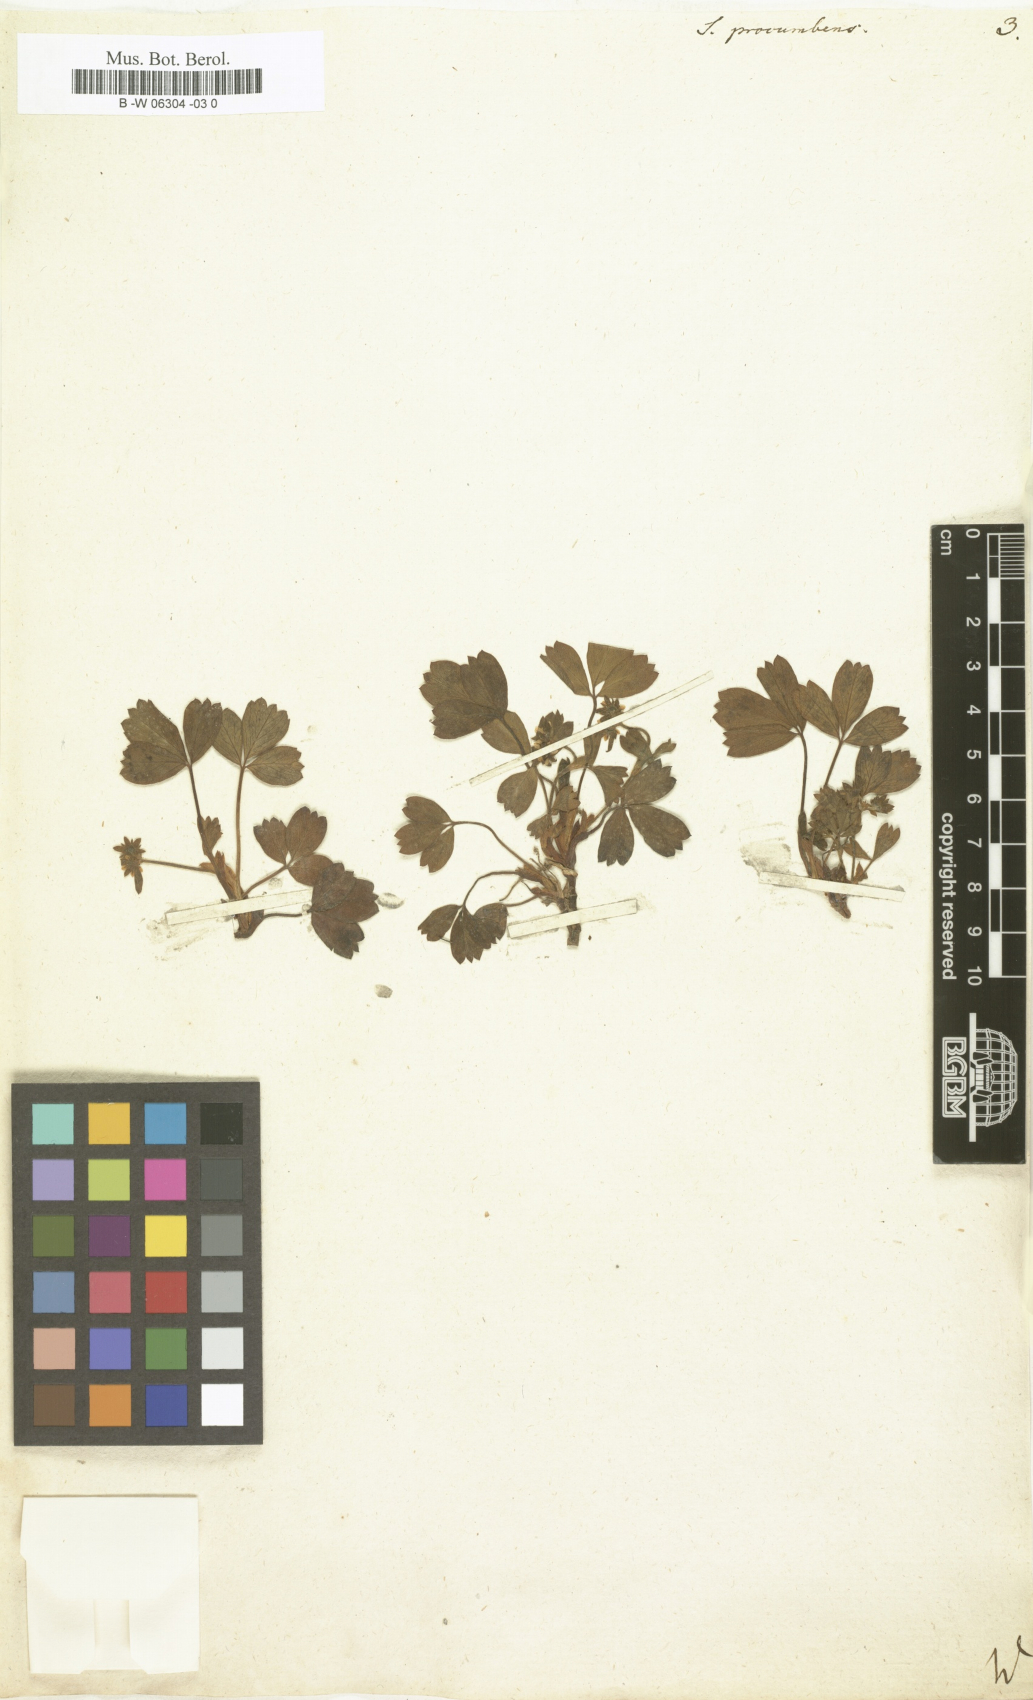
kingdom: Plantae
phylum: Tracheophyta
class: Magnoliopsida
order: Rosales
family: Rosaceae
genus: Sibbaldia
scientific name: Sibbaldia procumbens
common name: Creeping sibbaldia
